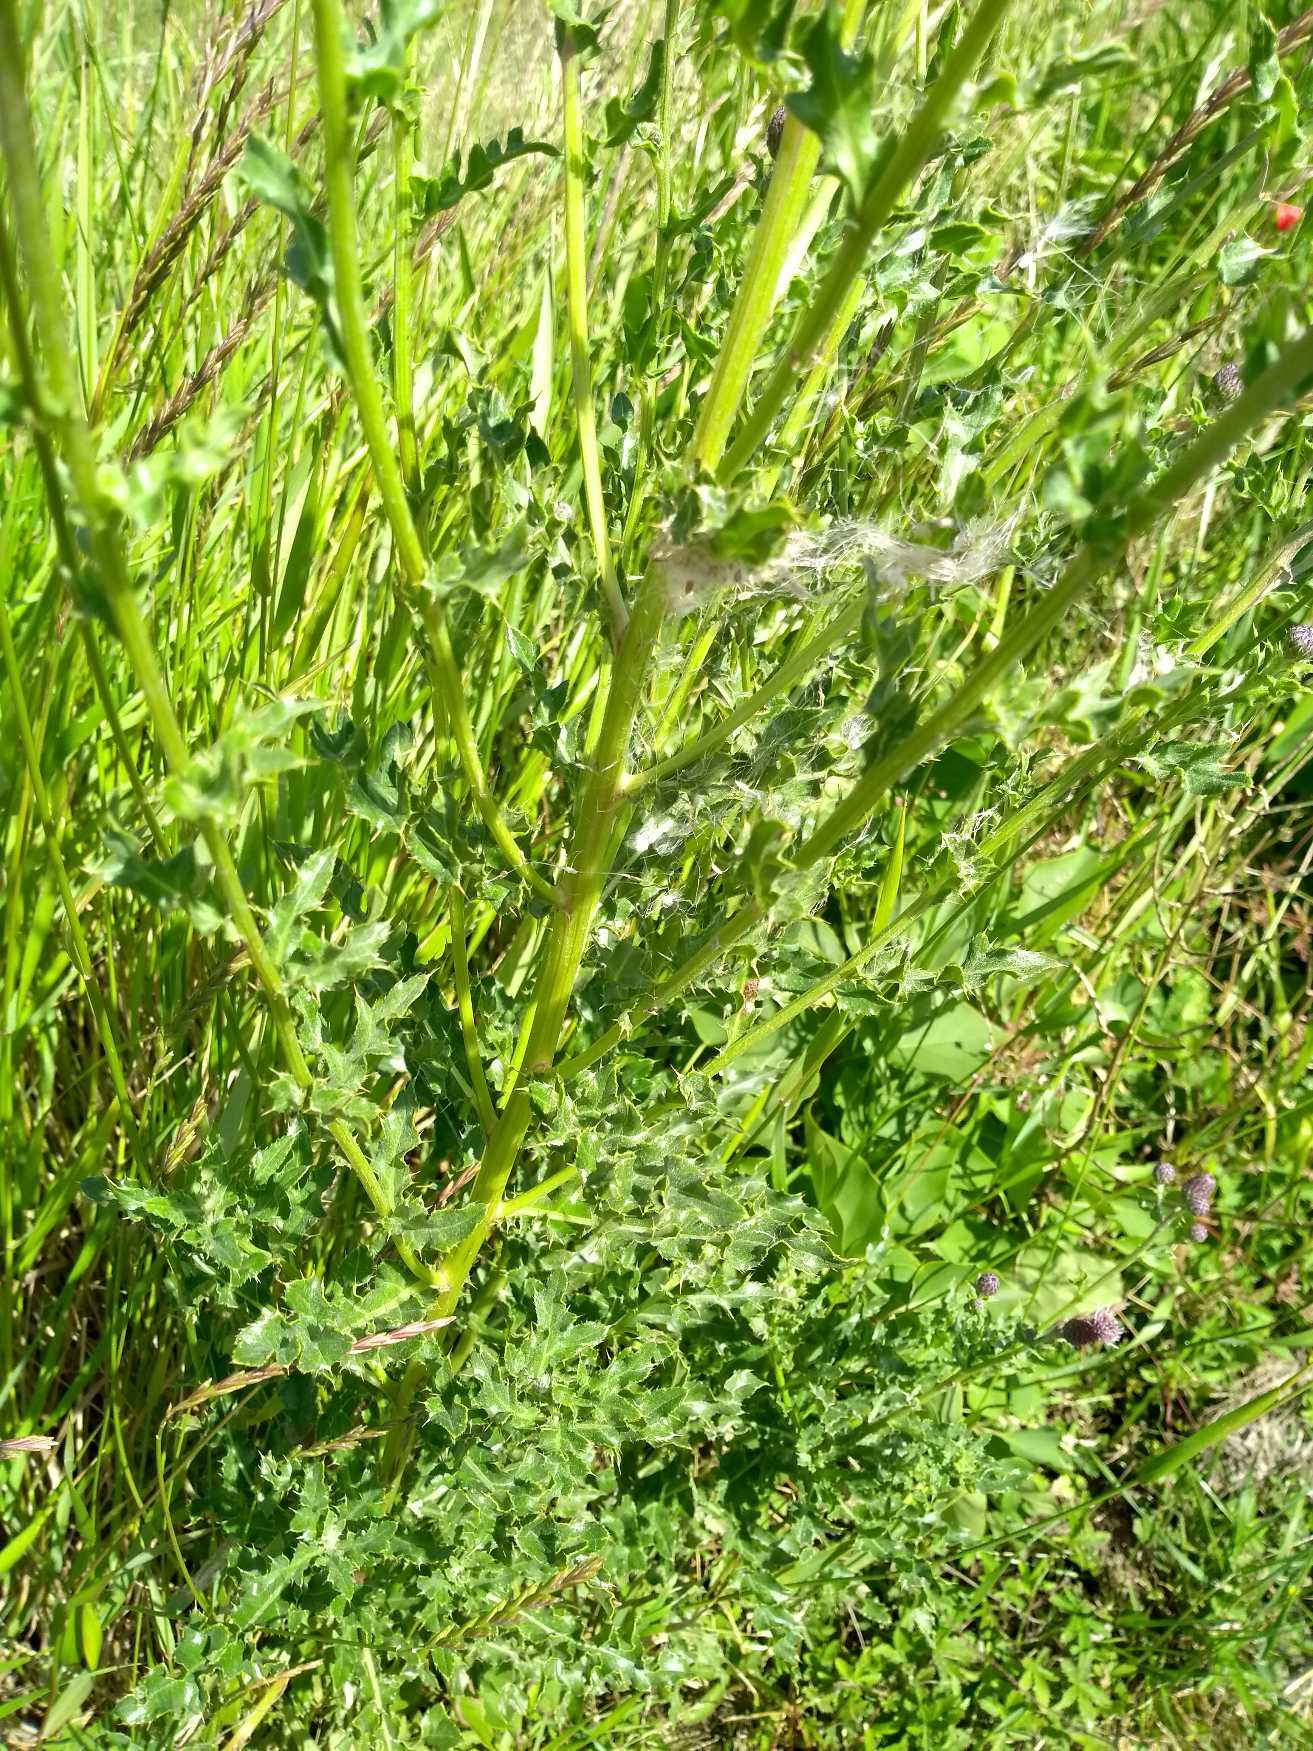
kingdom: Plantae
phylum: Tracheophyta
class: Magnoliopsida
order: Asterales
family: Asteraceae
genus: Cirsium
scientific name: Cirsium arvense
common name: Ager-tidsel
